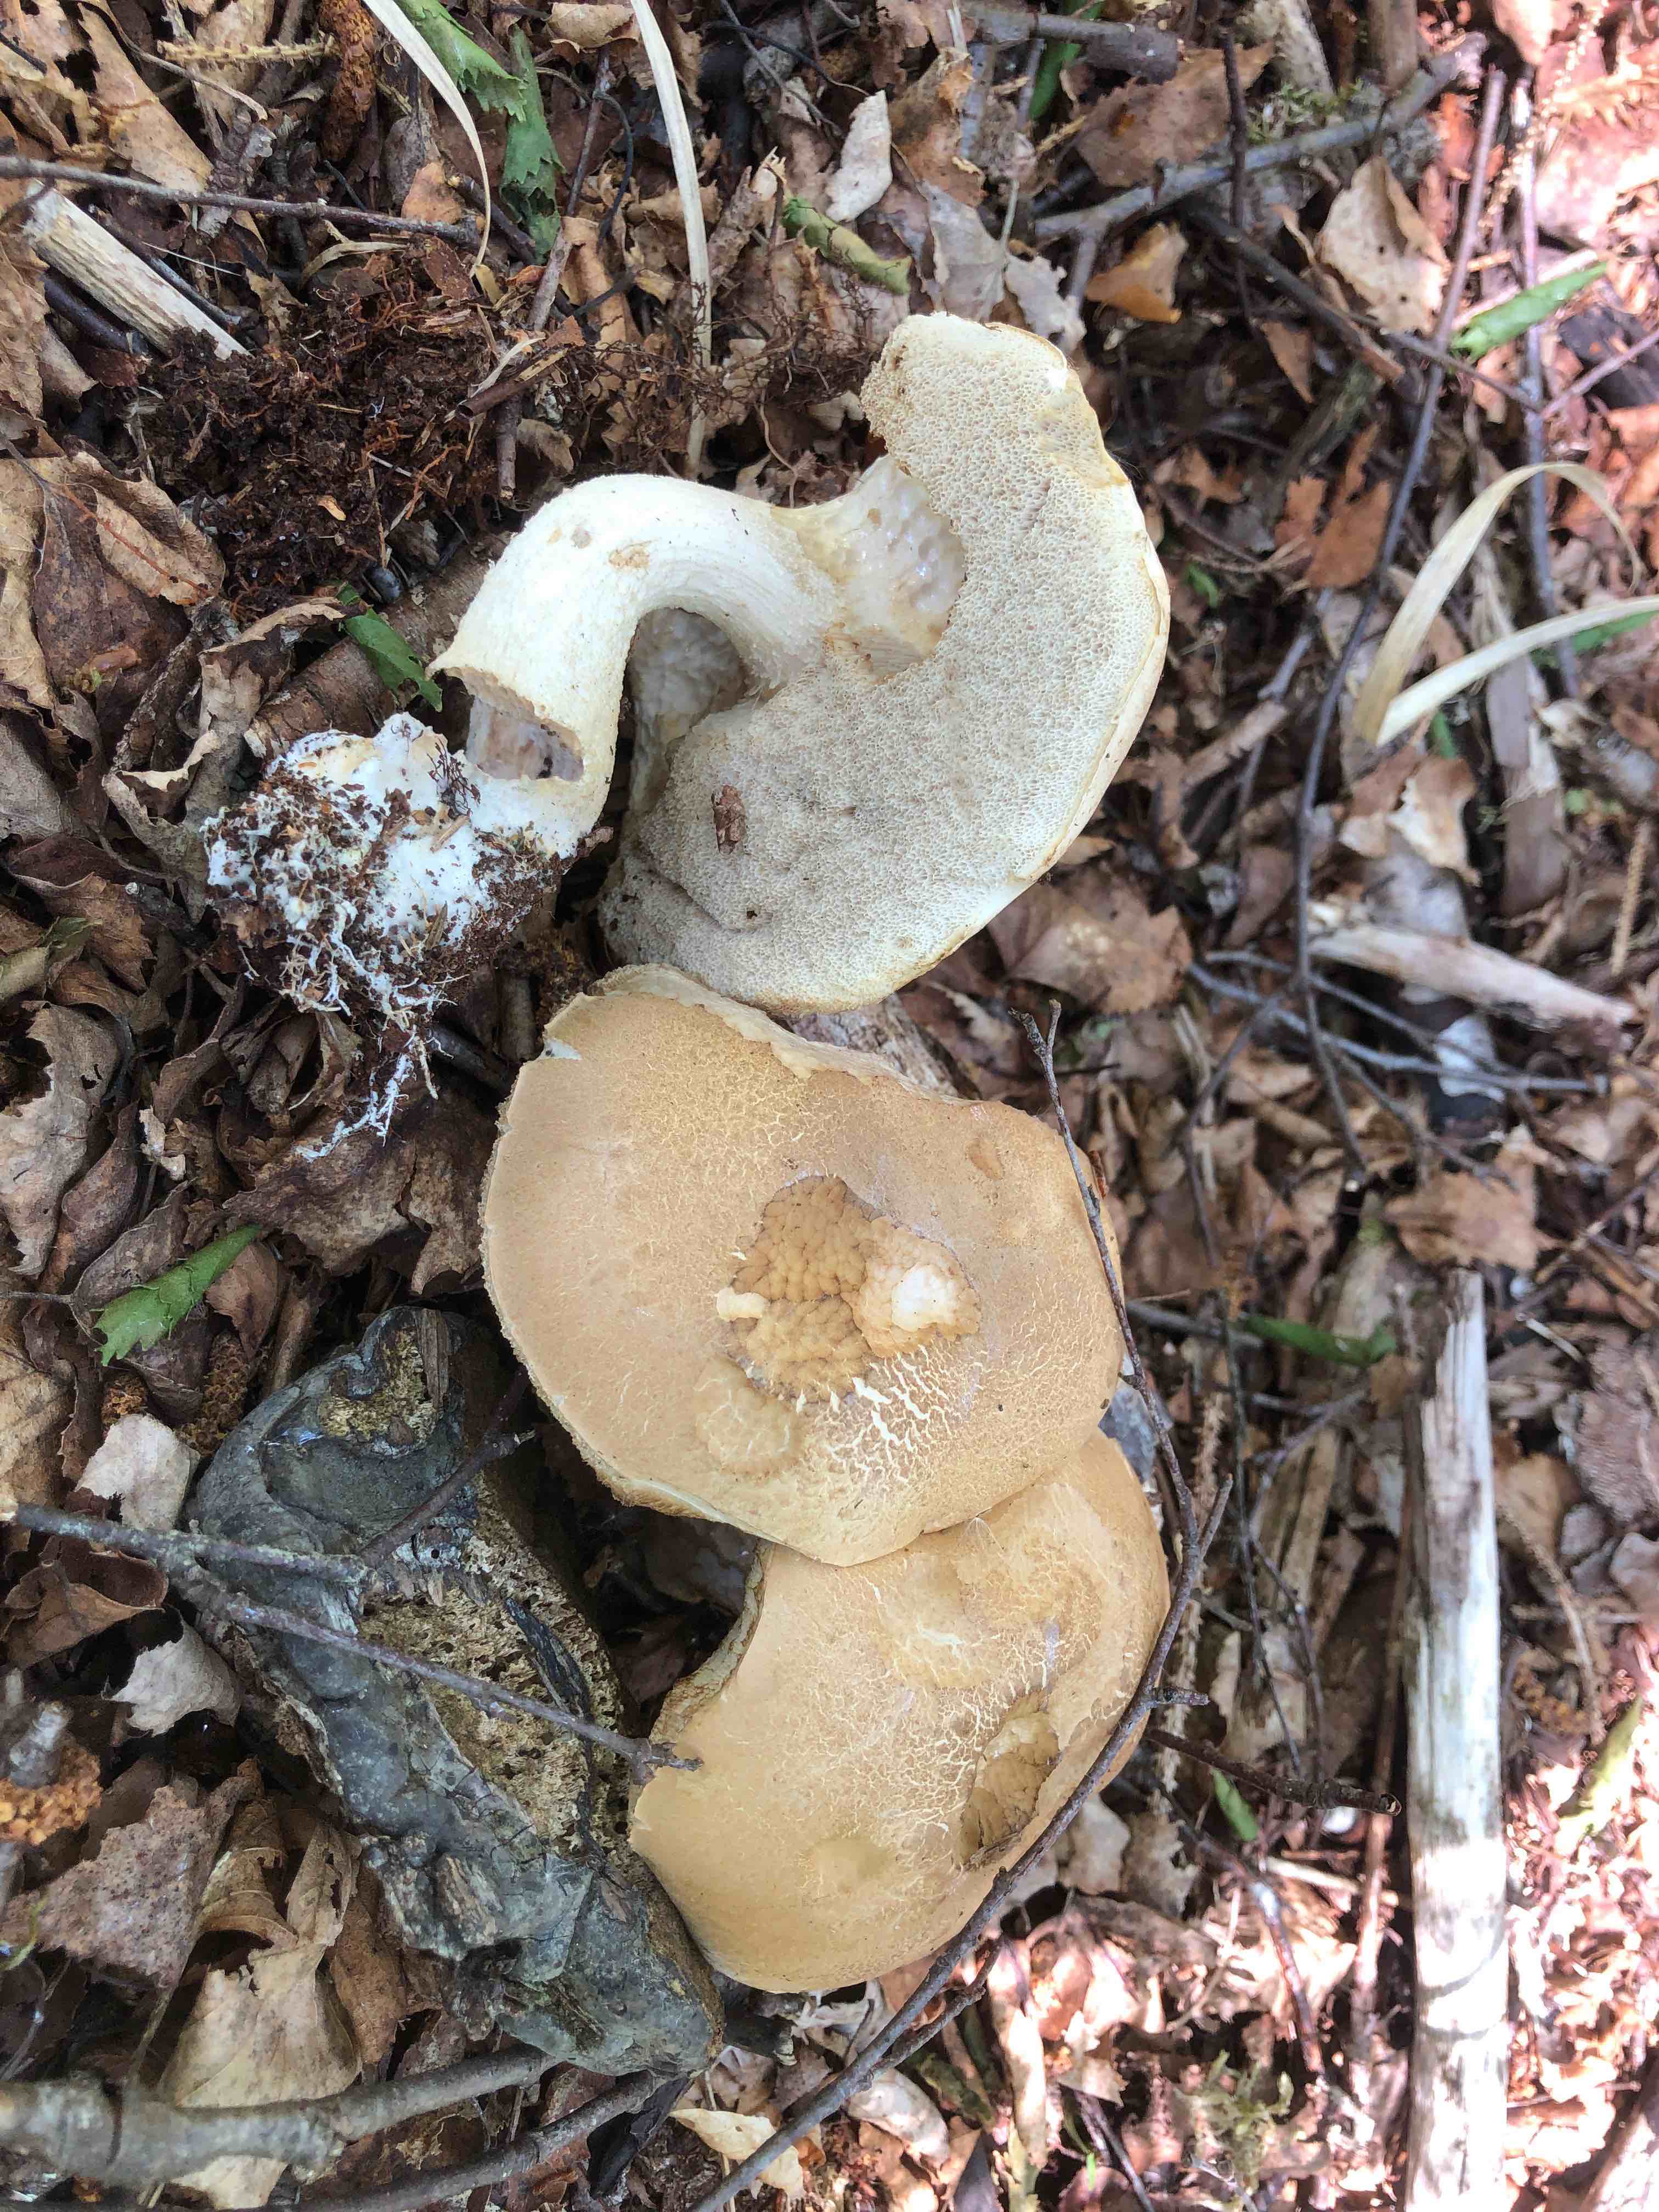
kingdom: Fungi
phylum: Basidiomycota
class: Agaricomycetes
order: Boletales
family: Boletaceae
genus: Leccinum
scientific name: Leccinum scabrum
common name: brun skælrørhat
